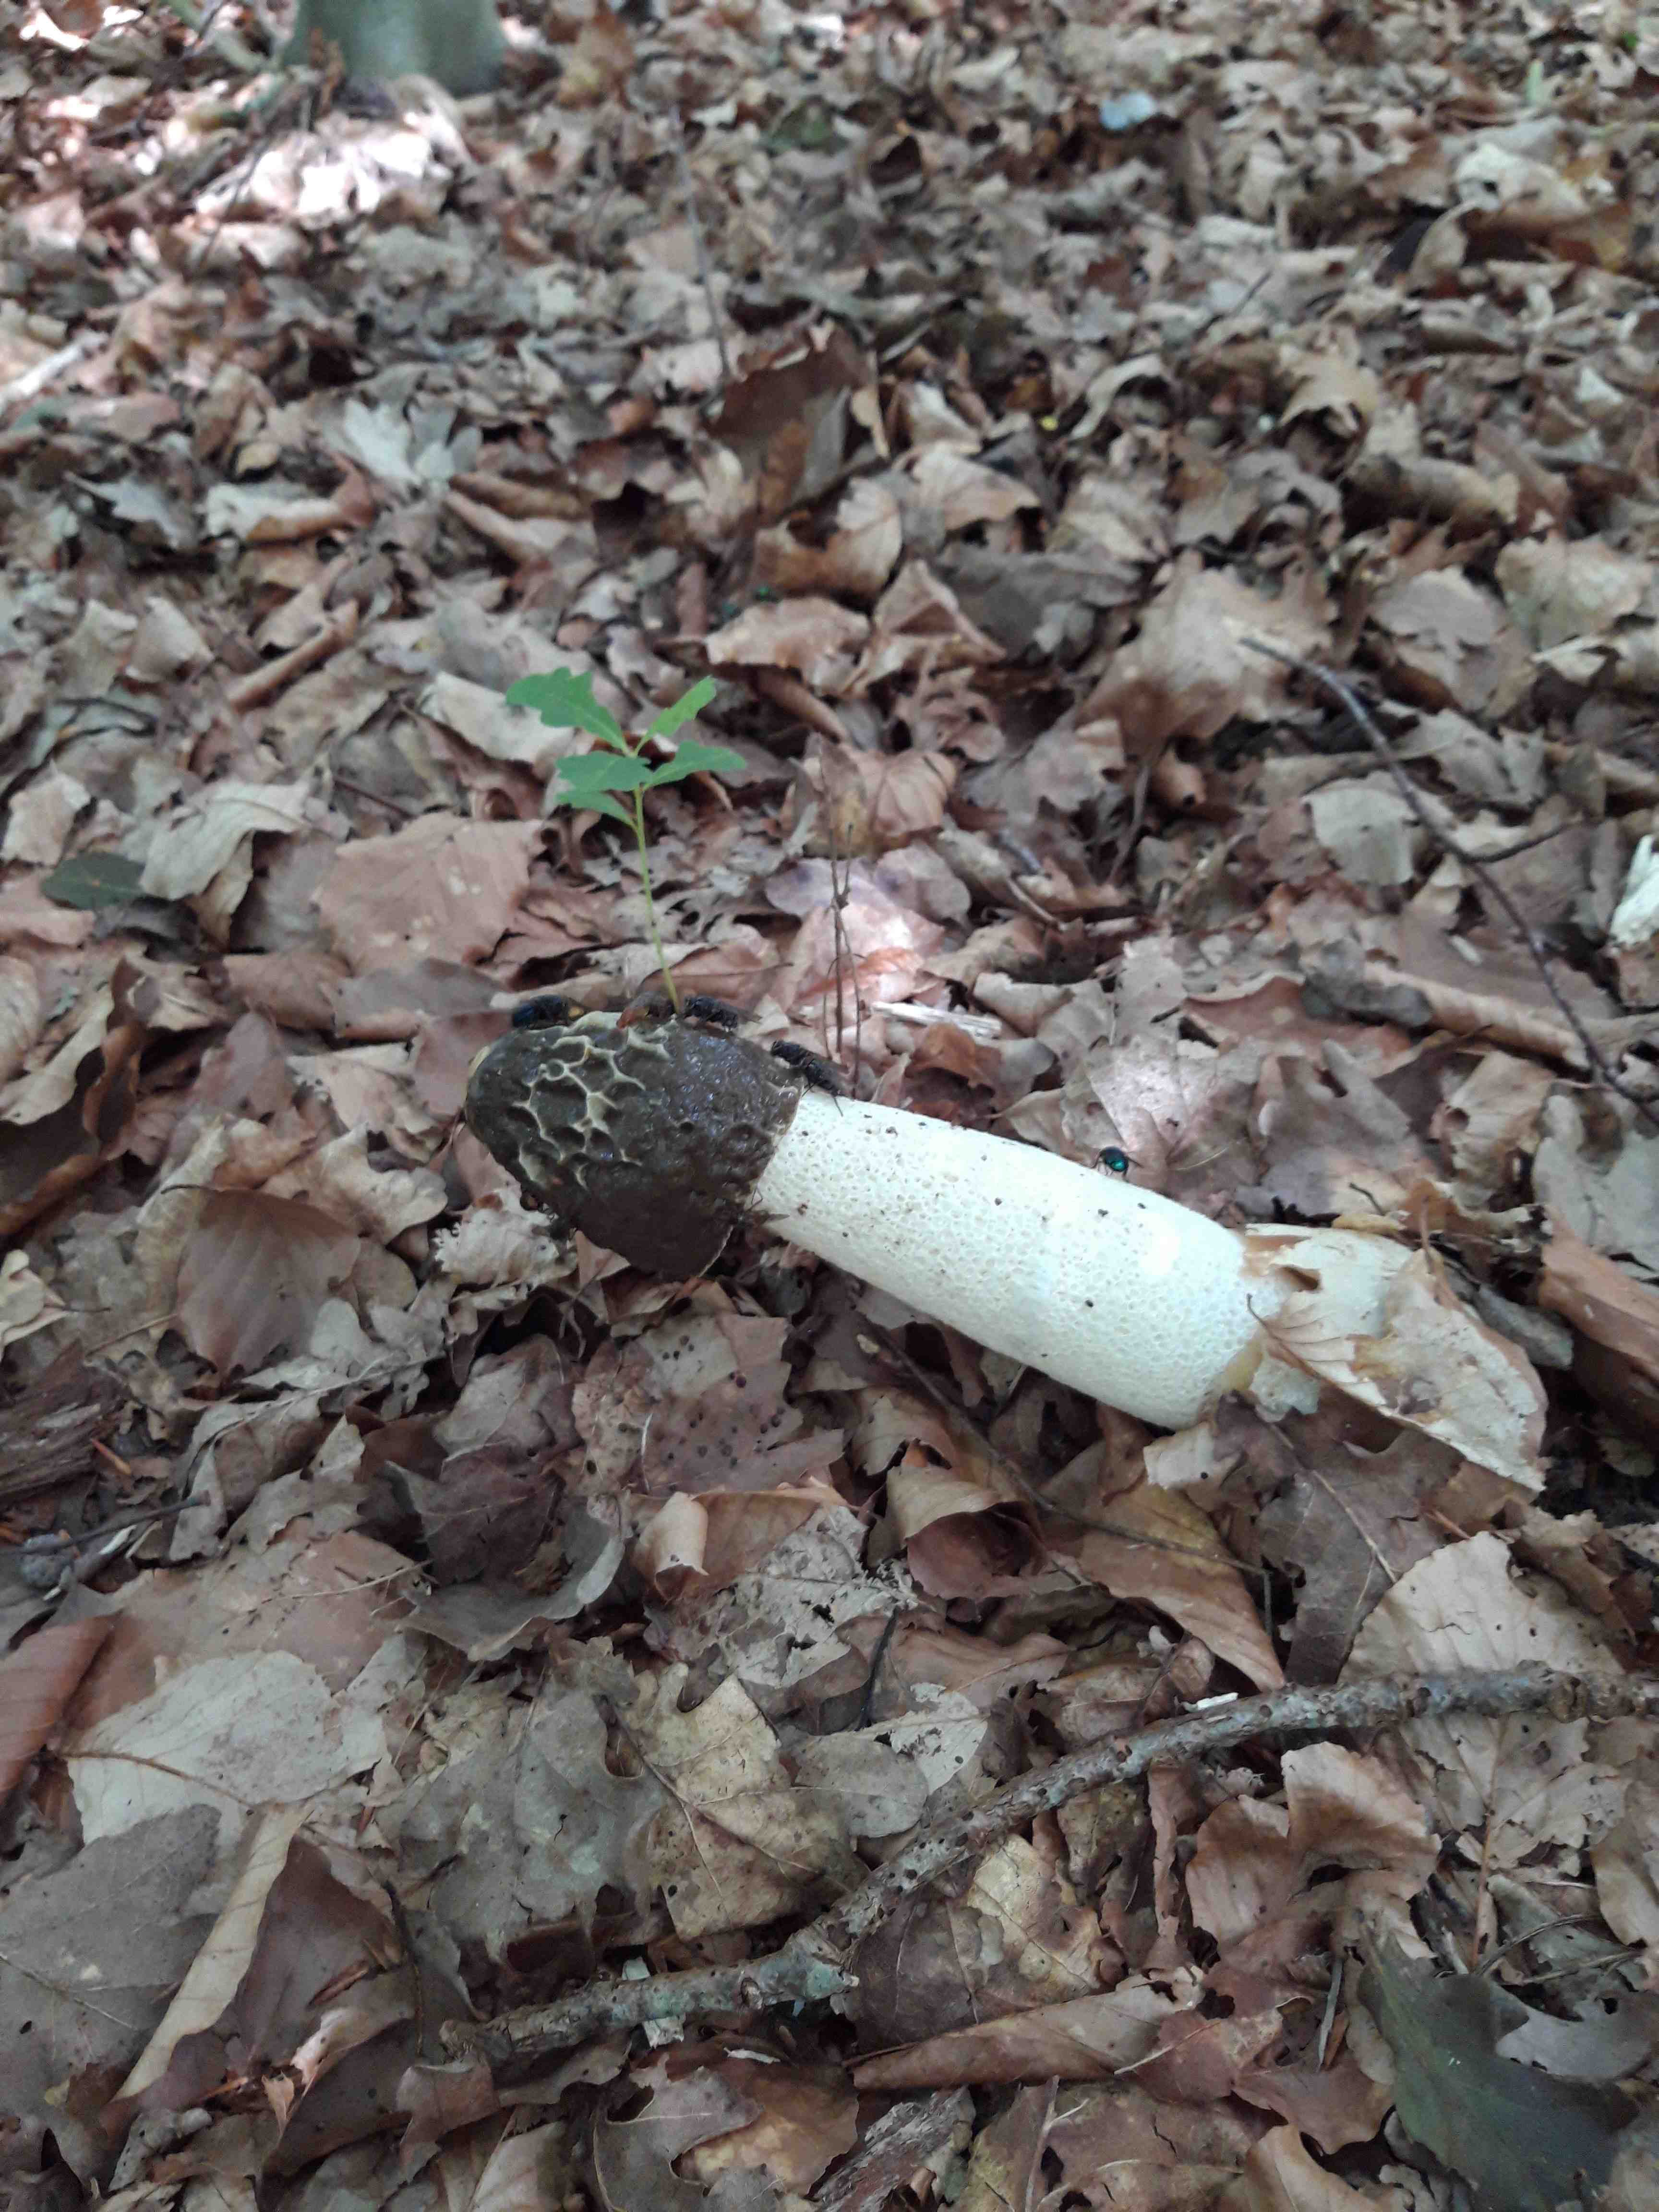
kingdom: Fungi
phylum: Basidiomycota
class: Agaricomycetes
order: Phallales
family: Phallaceae
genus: Phallus
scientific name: Phallus impudicus
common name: almindelig stinksvamp
